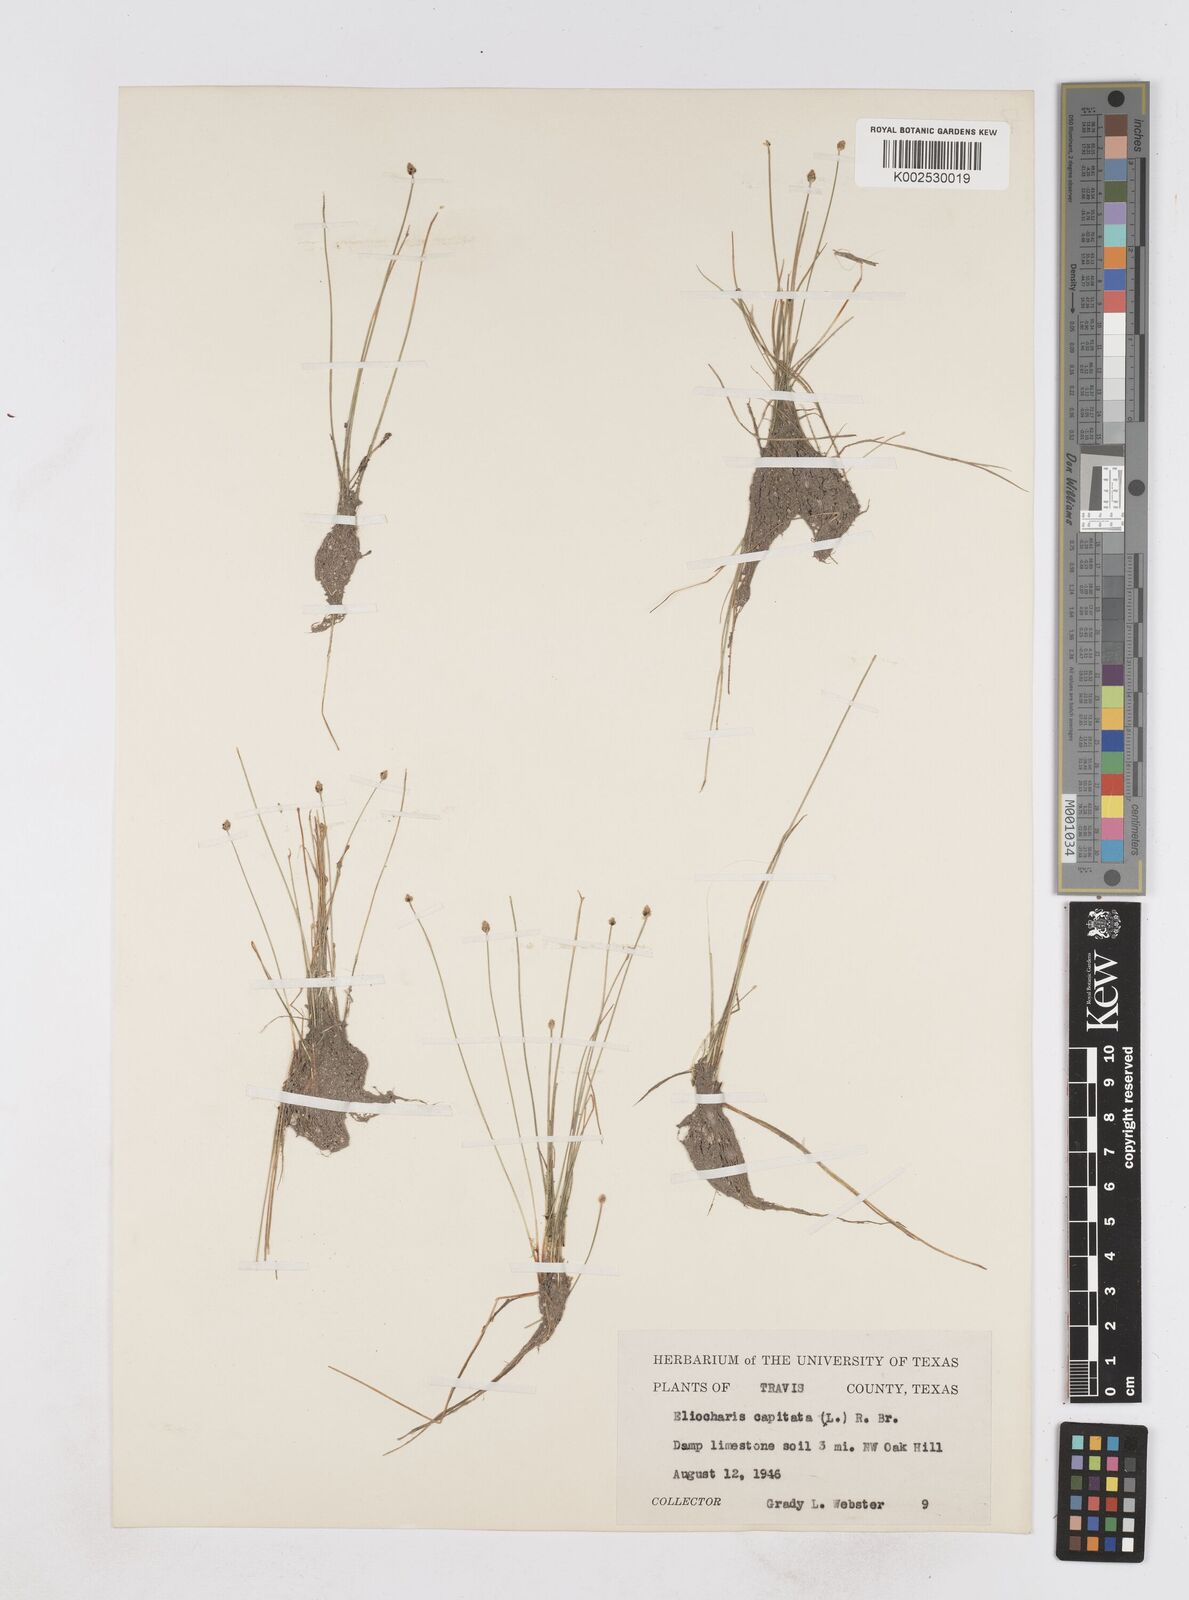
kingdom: Plantae
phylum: Tracheophyta
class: Liliopsida
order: Poales
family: Cyperaceae
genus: Eleocharis
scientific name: Eleocharis geniculata
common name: Canada spikesedge
